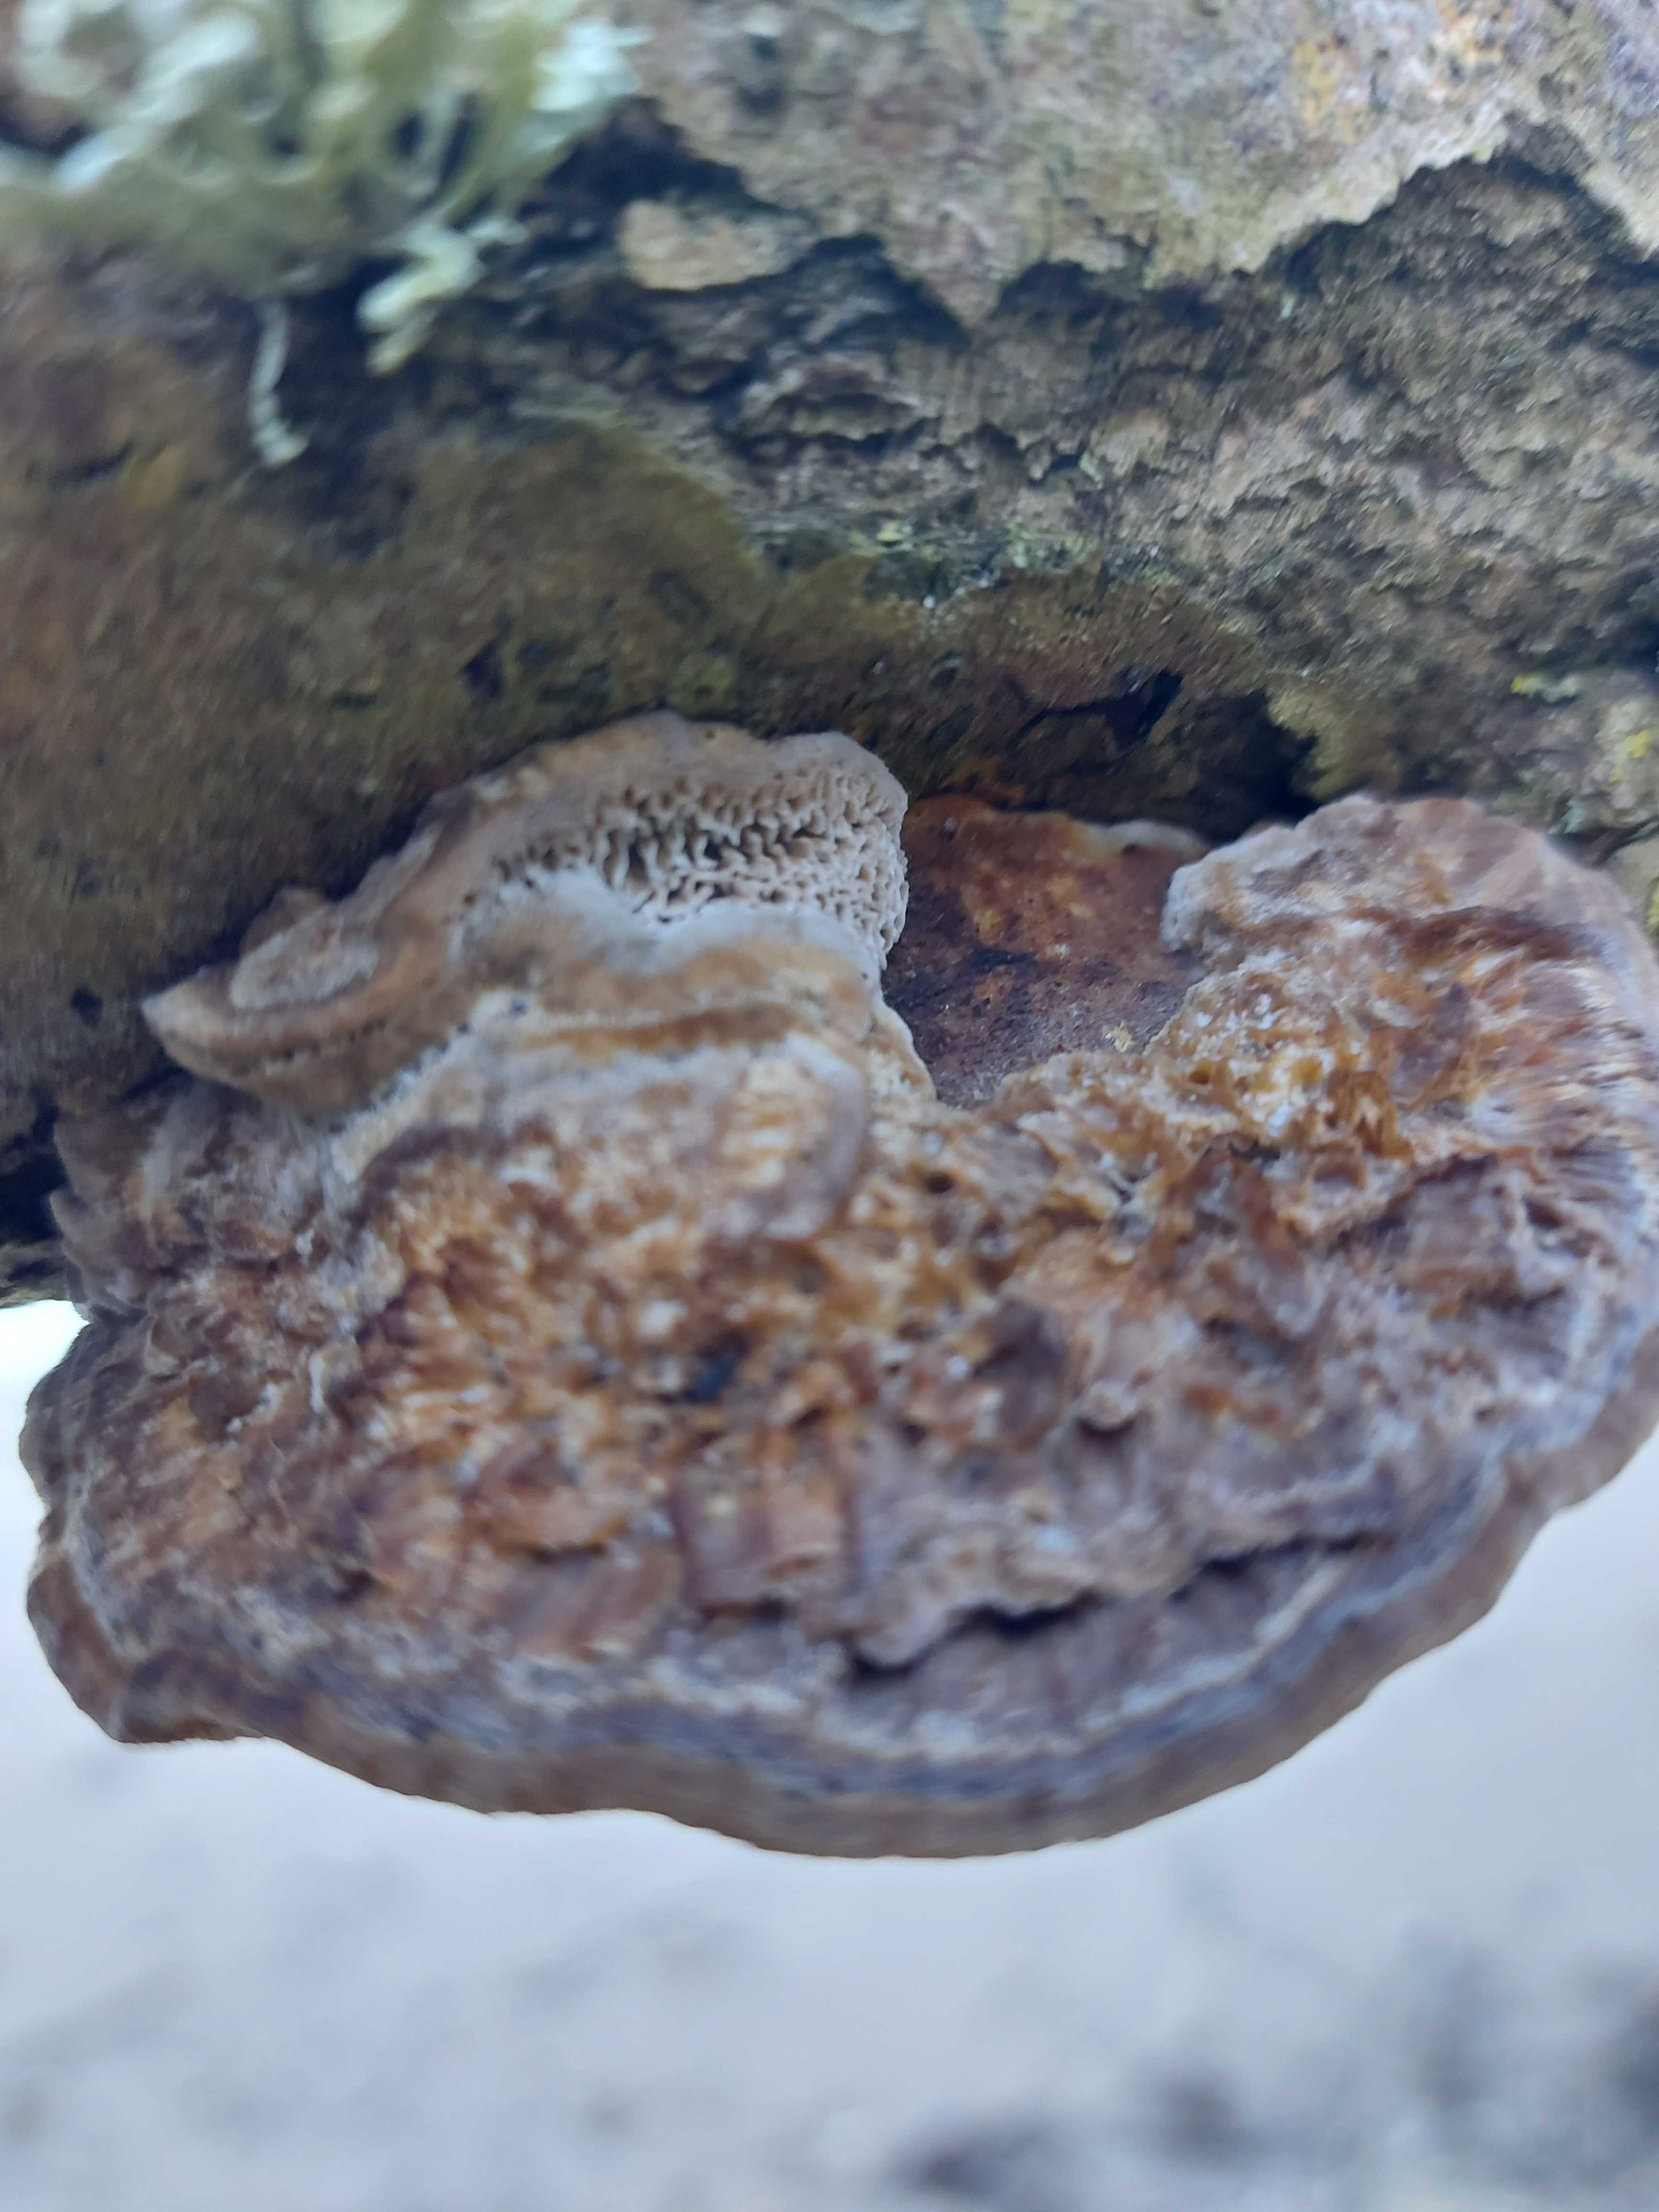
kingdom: Fungi
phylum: Basidiomycota
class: Agaricomycetes
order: Polyporales
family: Polyporaceae
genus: Daedaleopsis
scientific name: Daedaleopsis confragosa
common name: rødmende læderporesvamp
